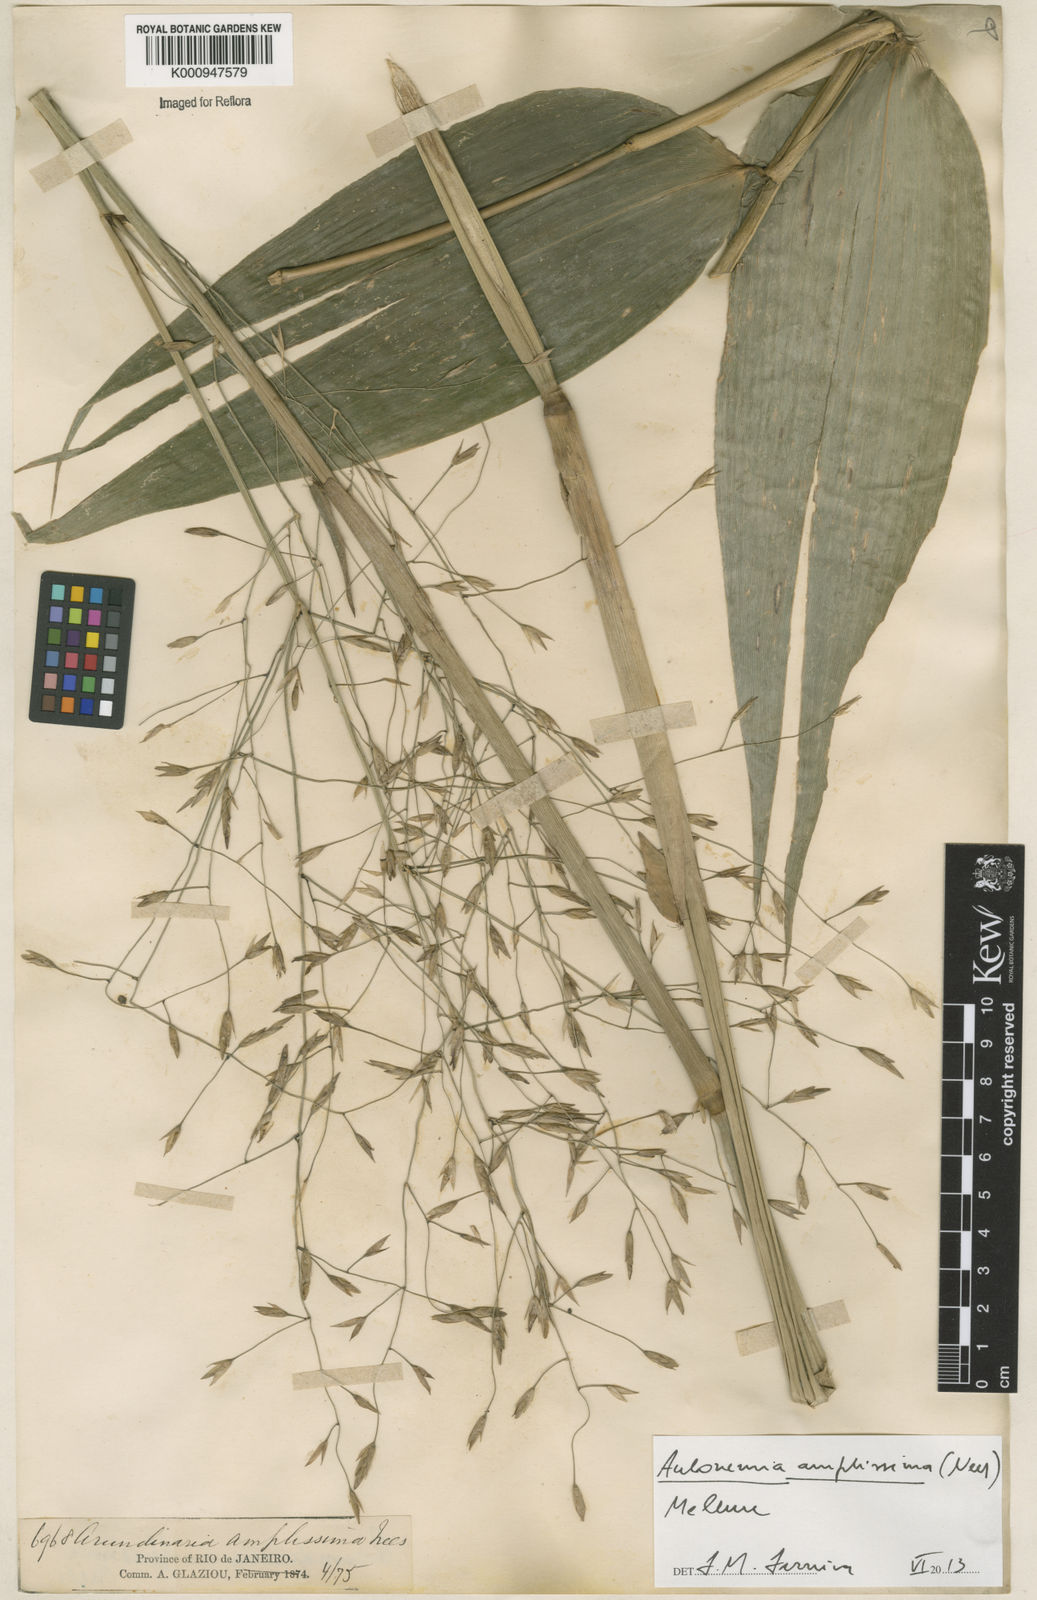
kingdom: Plantae
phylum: Tracheophyta
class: Liliopsida
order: Poales
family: Poaceae
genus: Aulonemia
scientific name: Aulonemia amplissima
